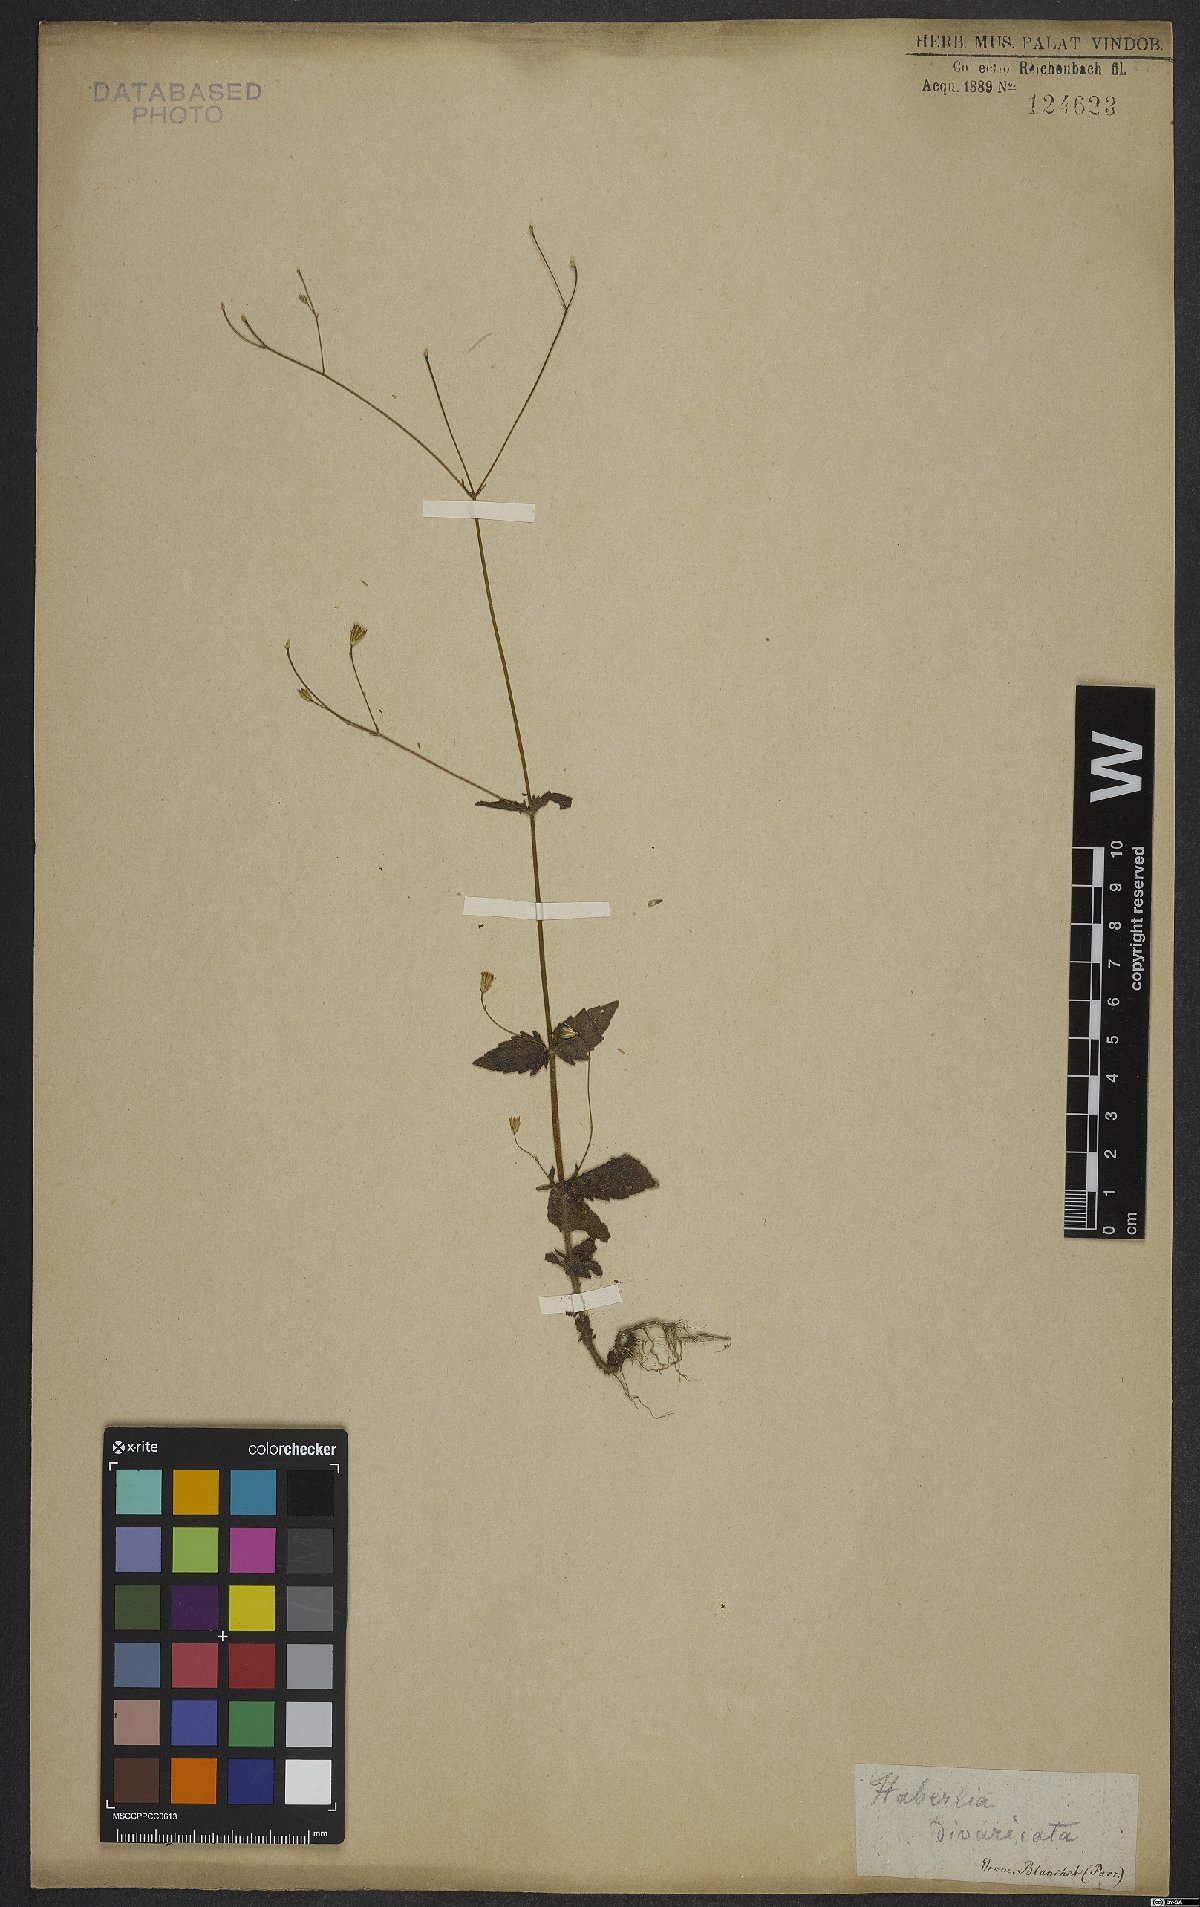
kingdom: Plantae
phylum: Tracheophyta
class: Magnoliopsida
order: Asterales
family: Asteraceae
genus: Ageratina
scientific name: Ageratina altissima
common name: White snakeroot
